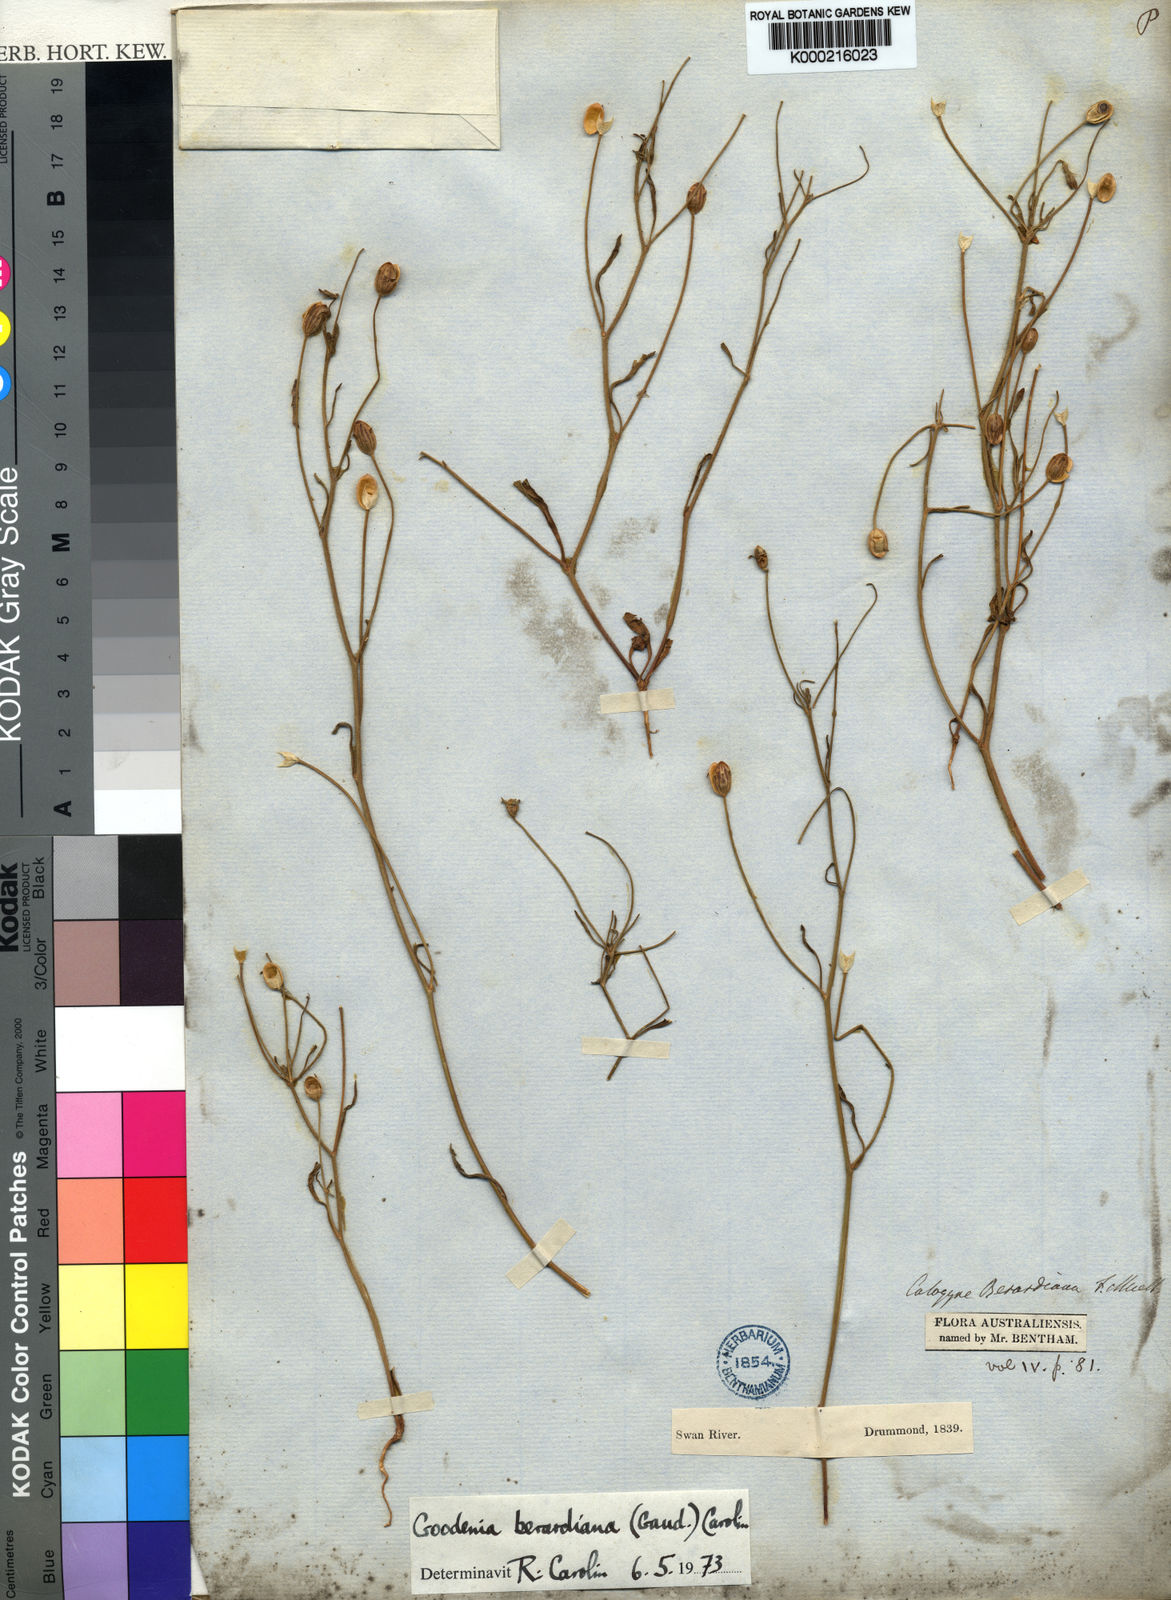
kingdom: Plantae
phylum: Tracheophyta
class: Magnoliopsida
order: Asterales
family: Goodeniaceae
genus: Goodenia
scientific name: Goodenia berardiana
